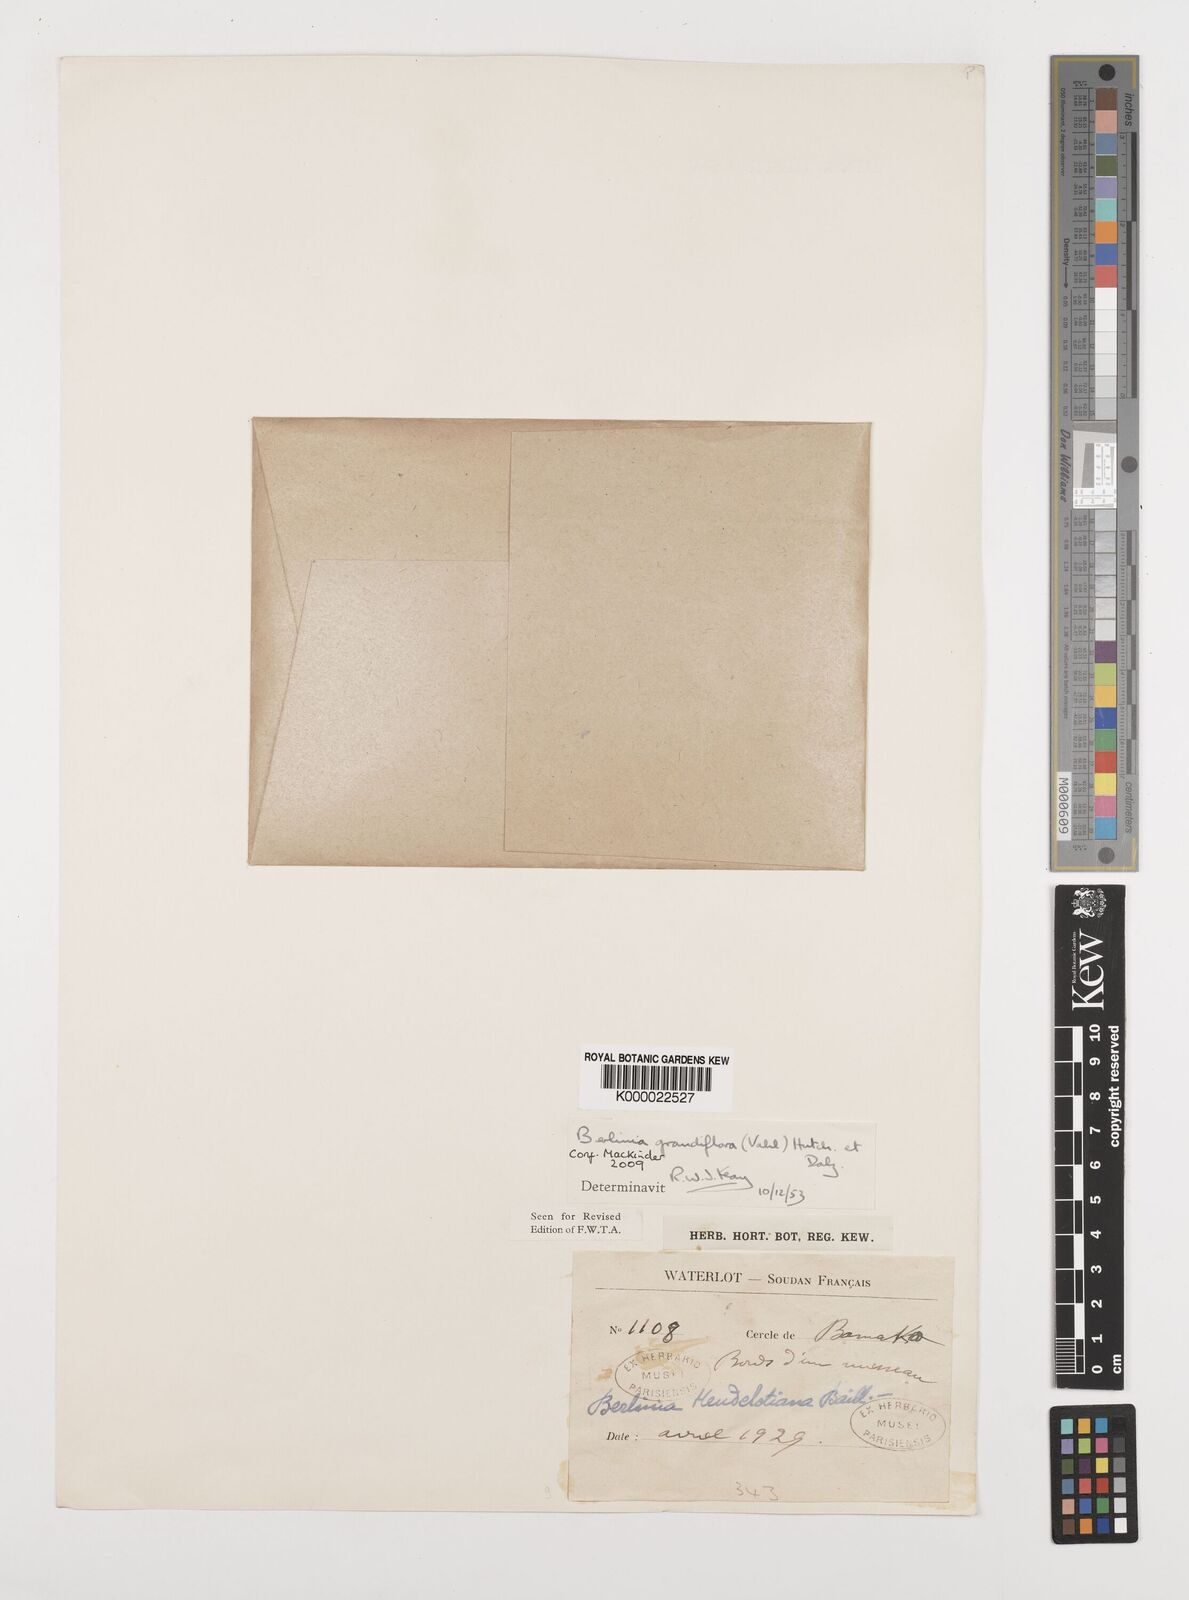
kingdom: Plantae
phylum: Tracheophyta
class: Magnoliopsida
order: Fabales
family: Fabaceae
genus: Berlinia
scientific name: Berlinia grandiflora
